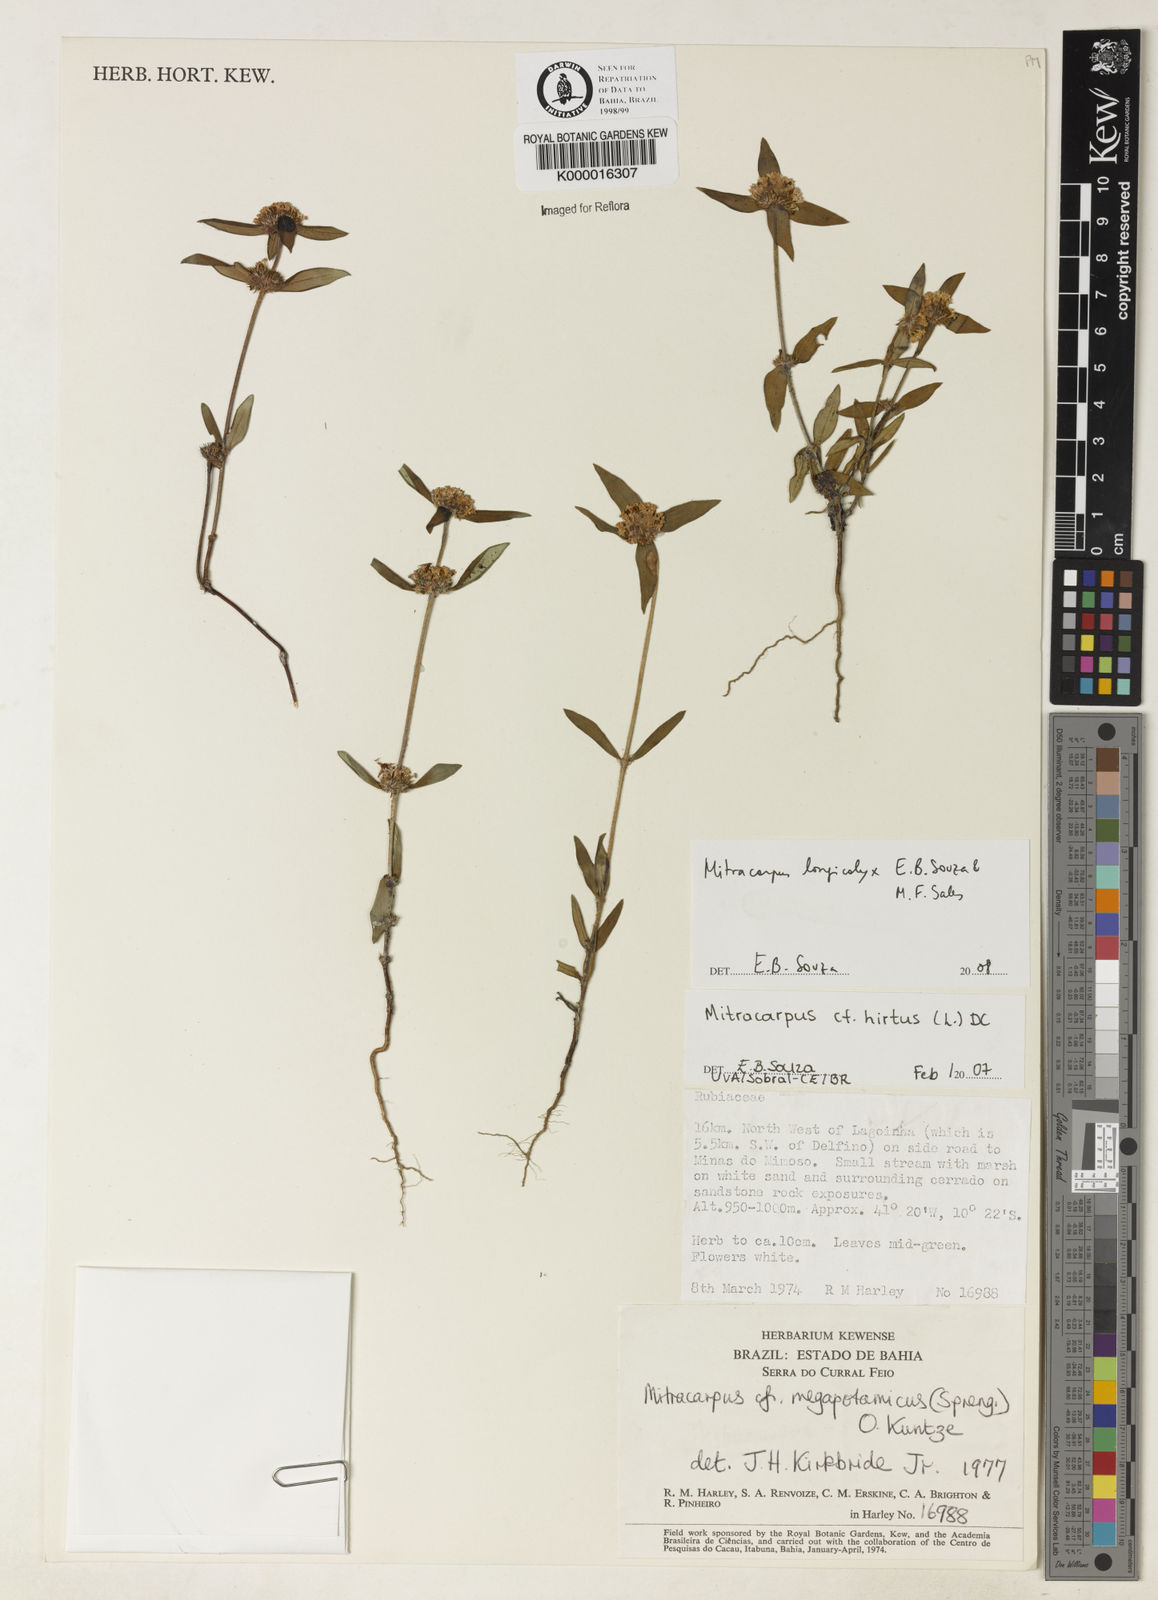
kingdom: Plantae
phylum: Tracheophyta
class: Magnoliopsida
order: Gentianales
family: Rubiaceae
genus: Mitracarpus
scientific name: Mitracarpus longicalyx
